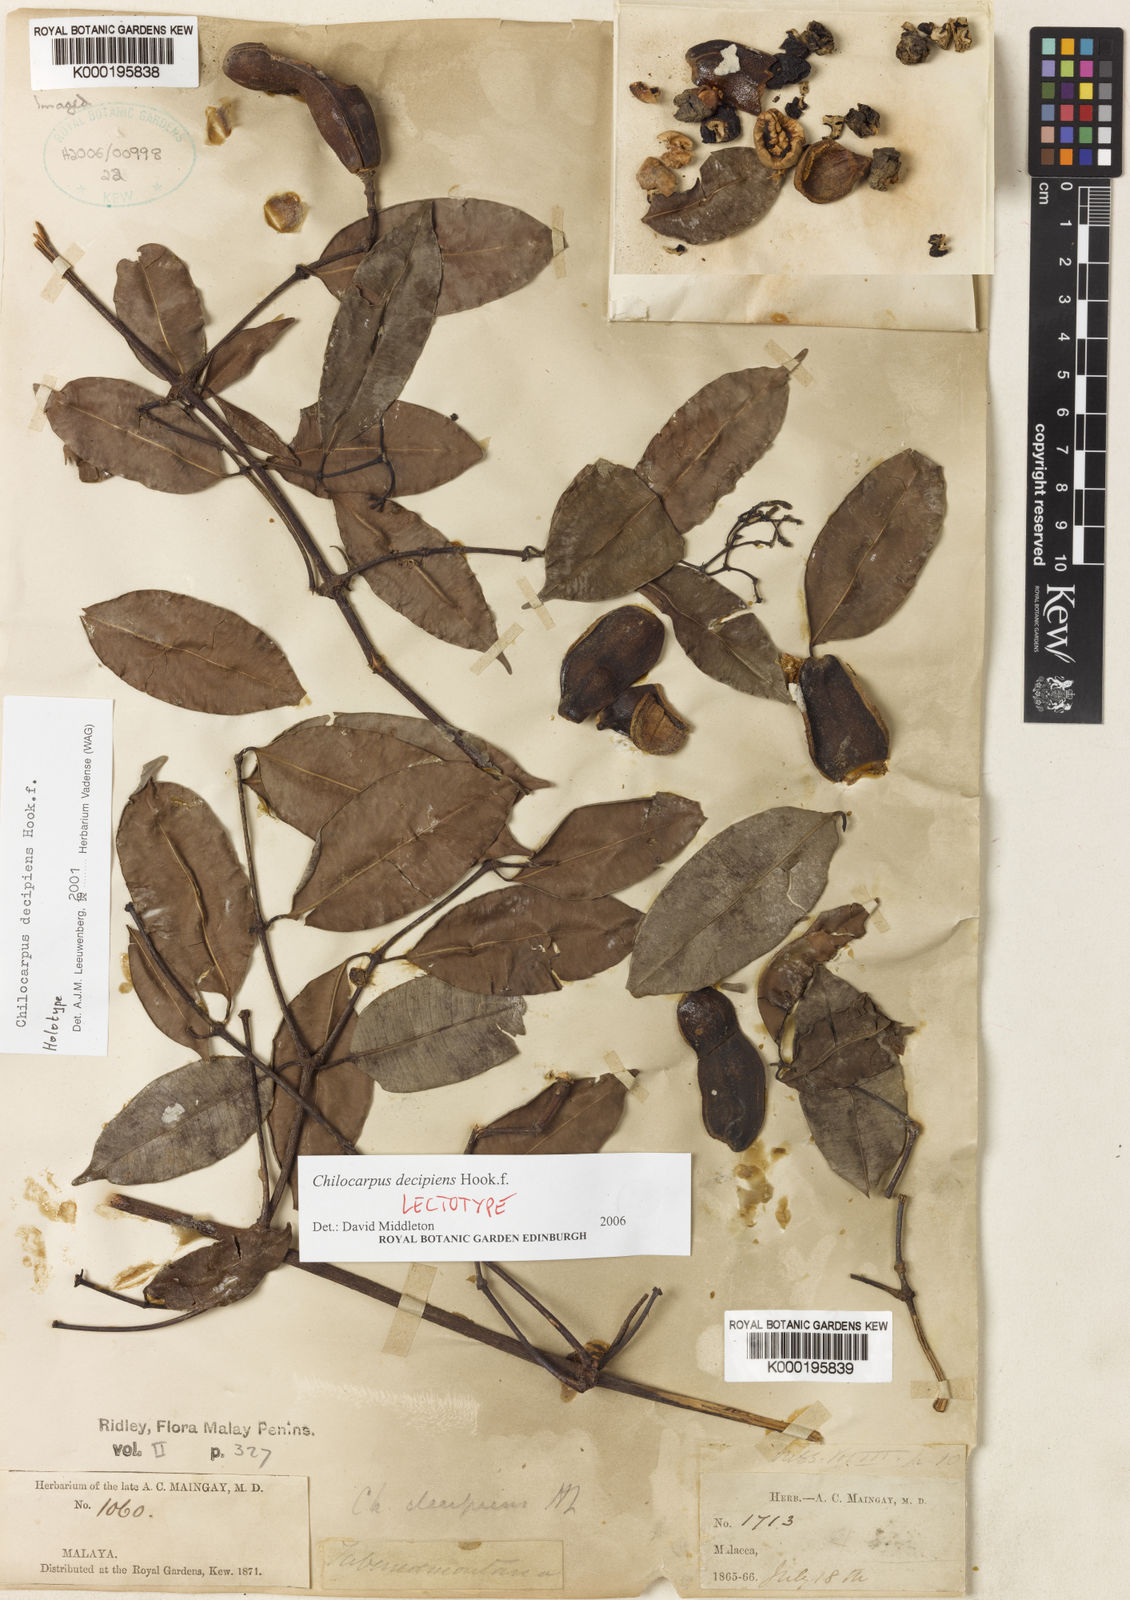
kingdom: Plantae
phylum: Tracheophyta
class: Magnoliopsida
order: Gentianales
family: Apocynaceae
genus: Chilocarpus
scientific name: Chilocarpus decipiens
